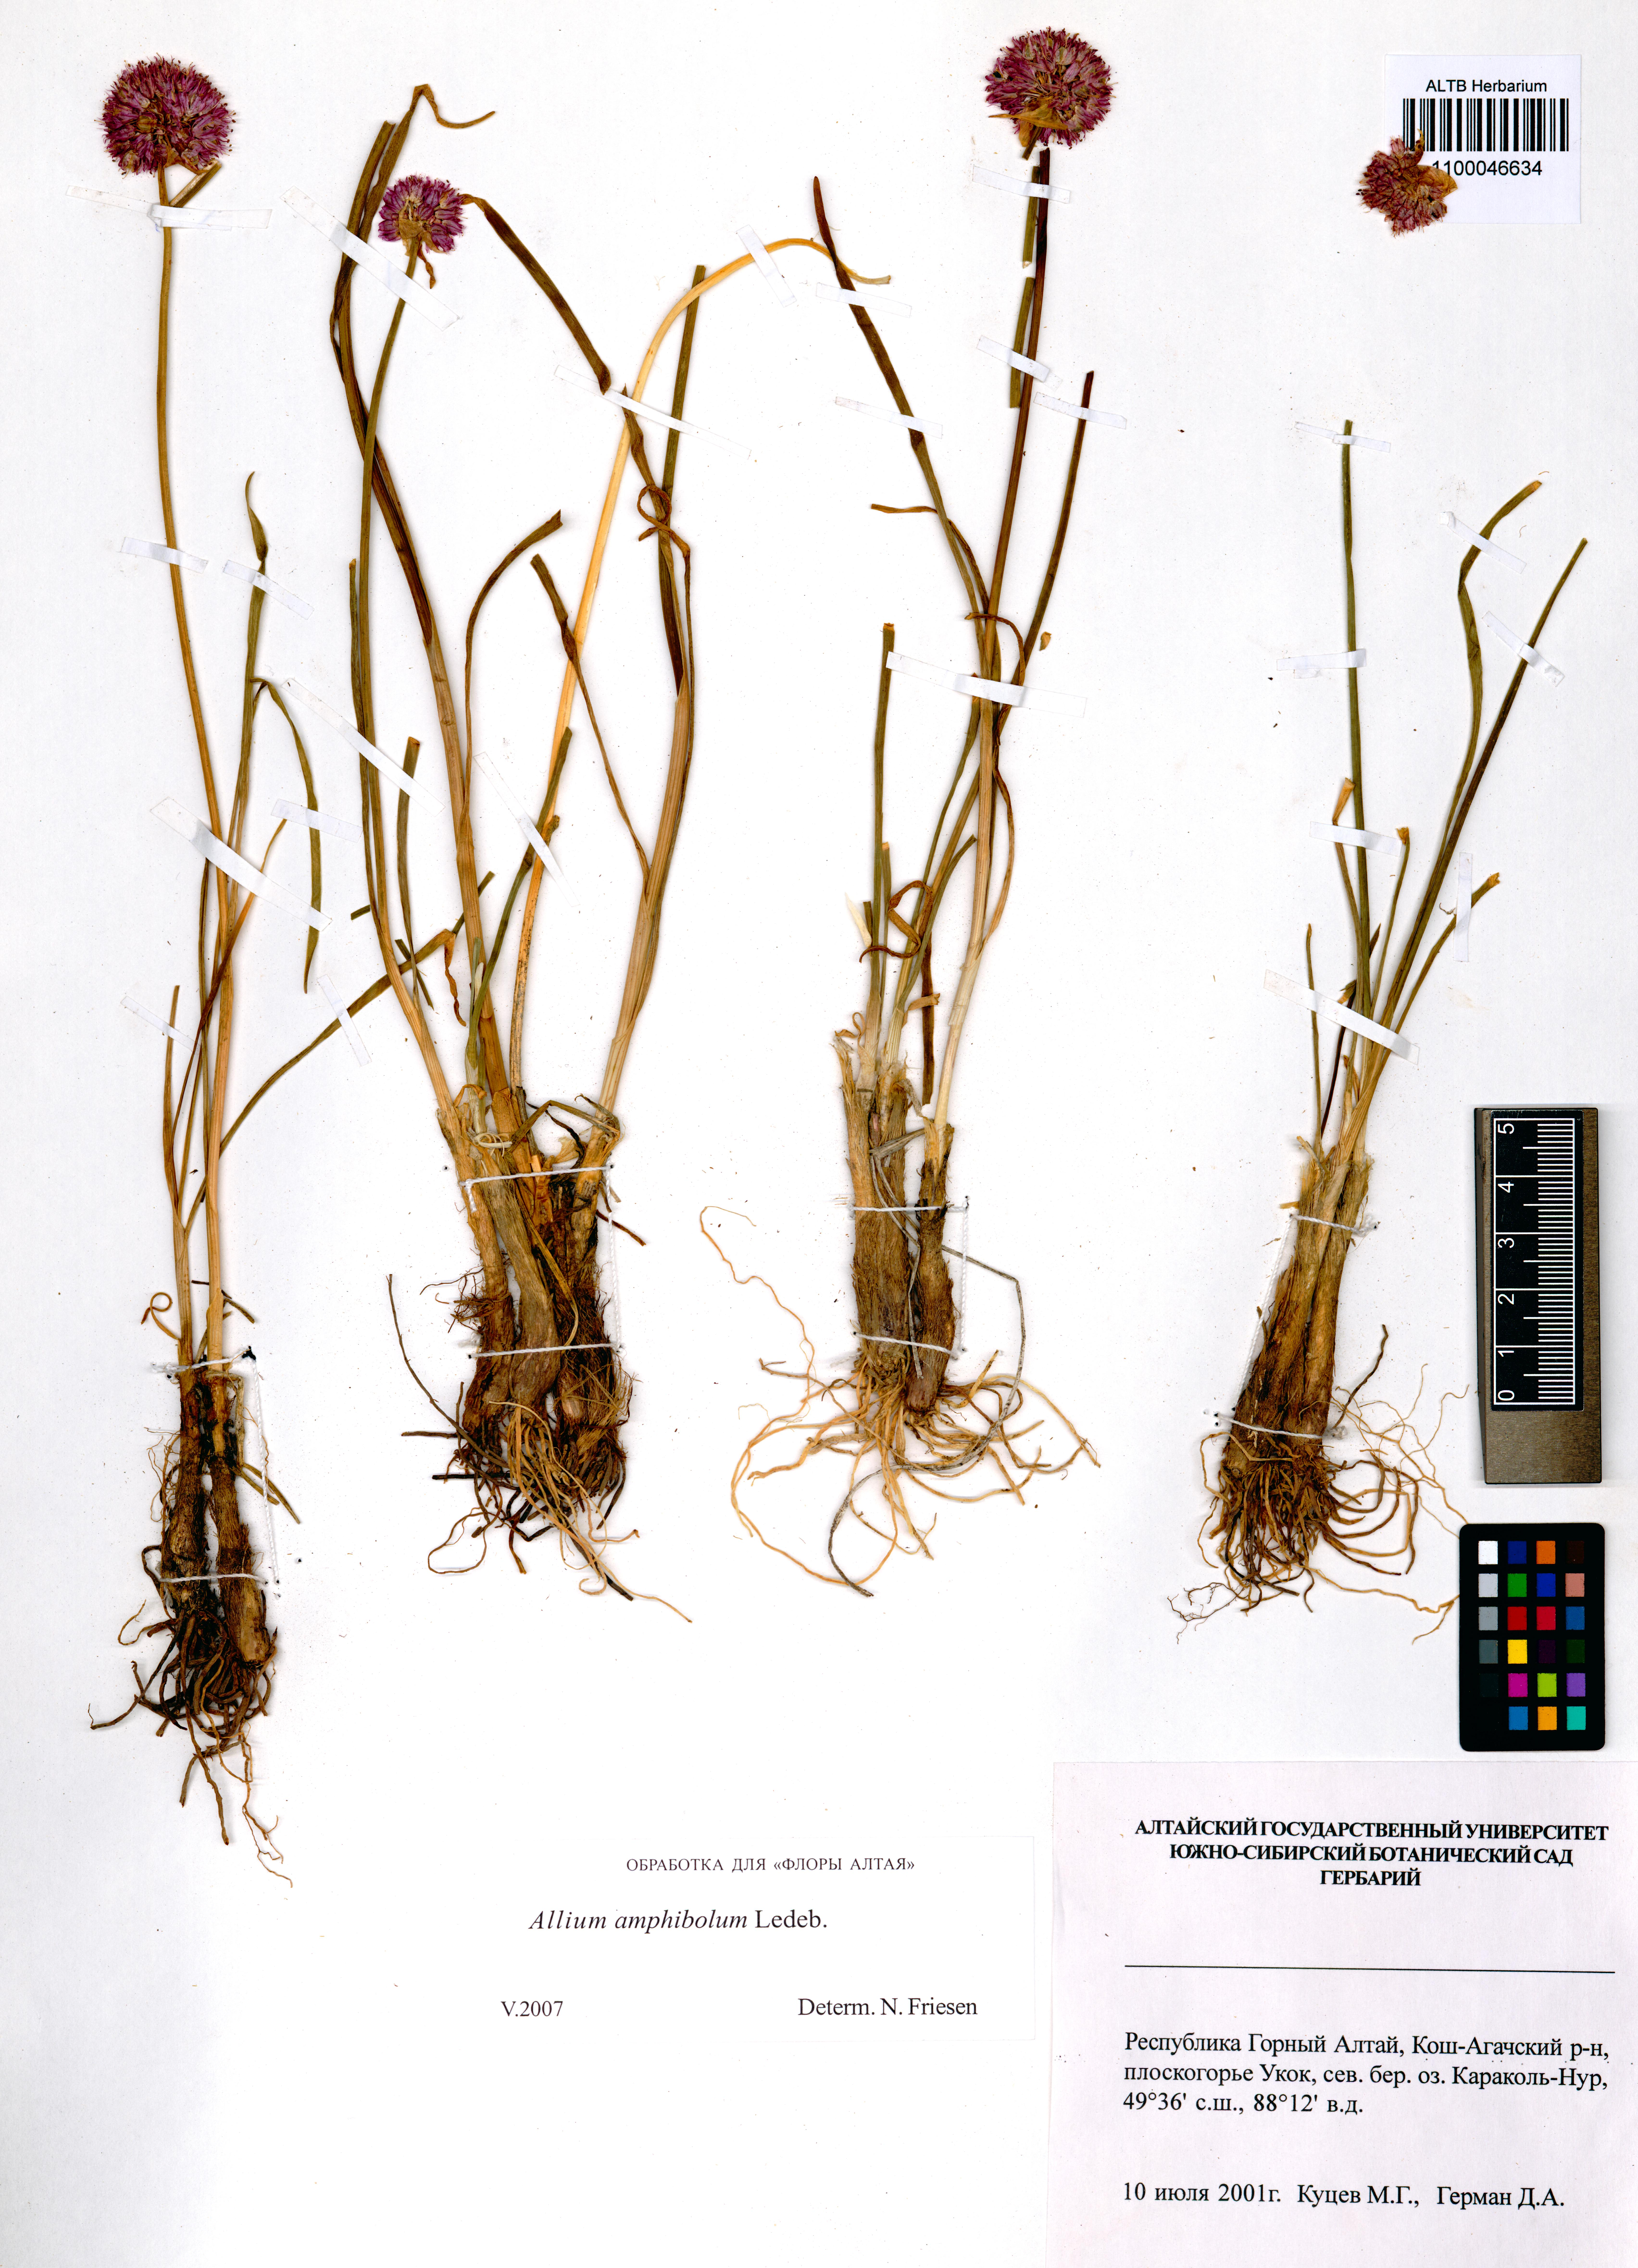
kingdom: Plantae
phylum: Tracheophyta
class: Liliopsida
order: Asparagales
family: Amaryllidaceae
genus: Allium
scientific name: Allium amphibolum
